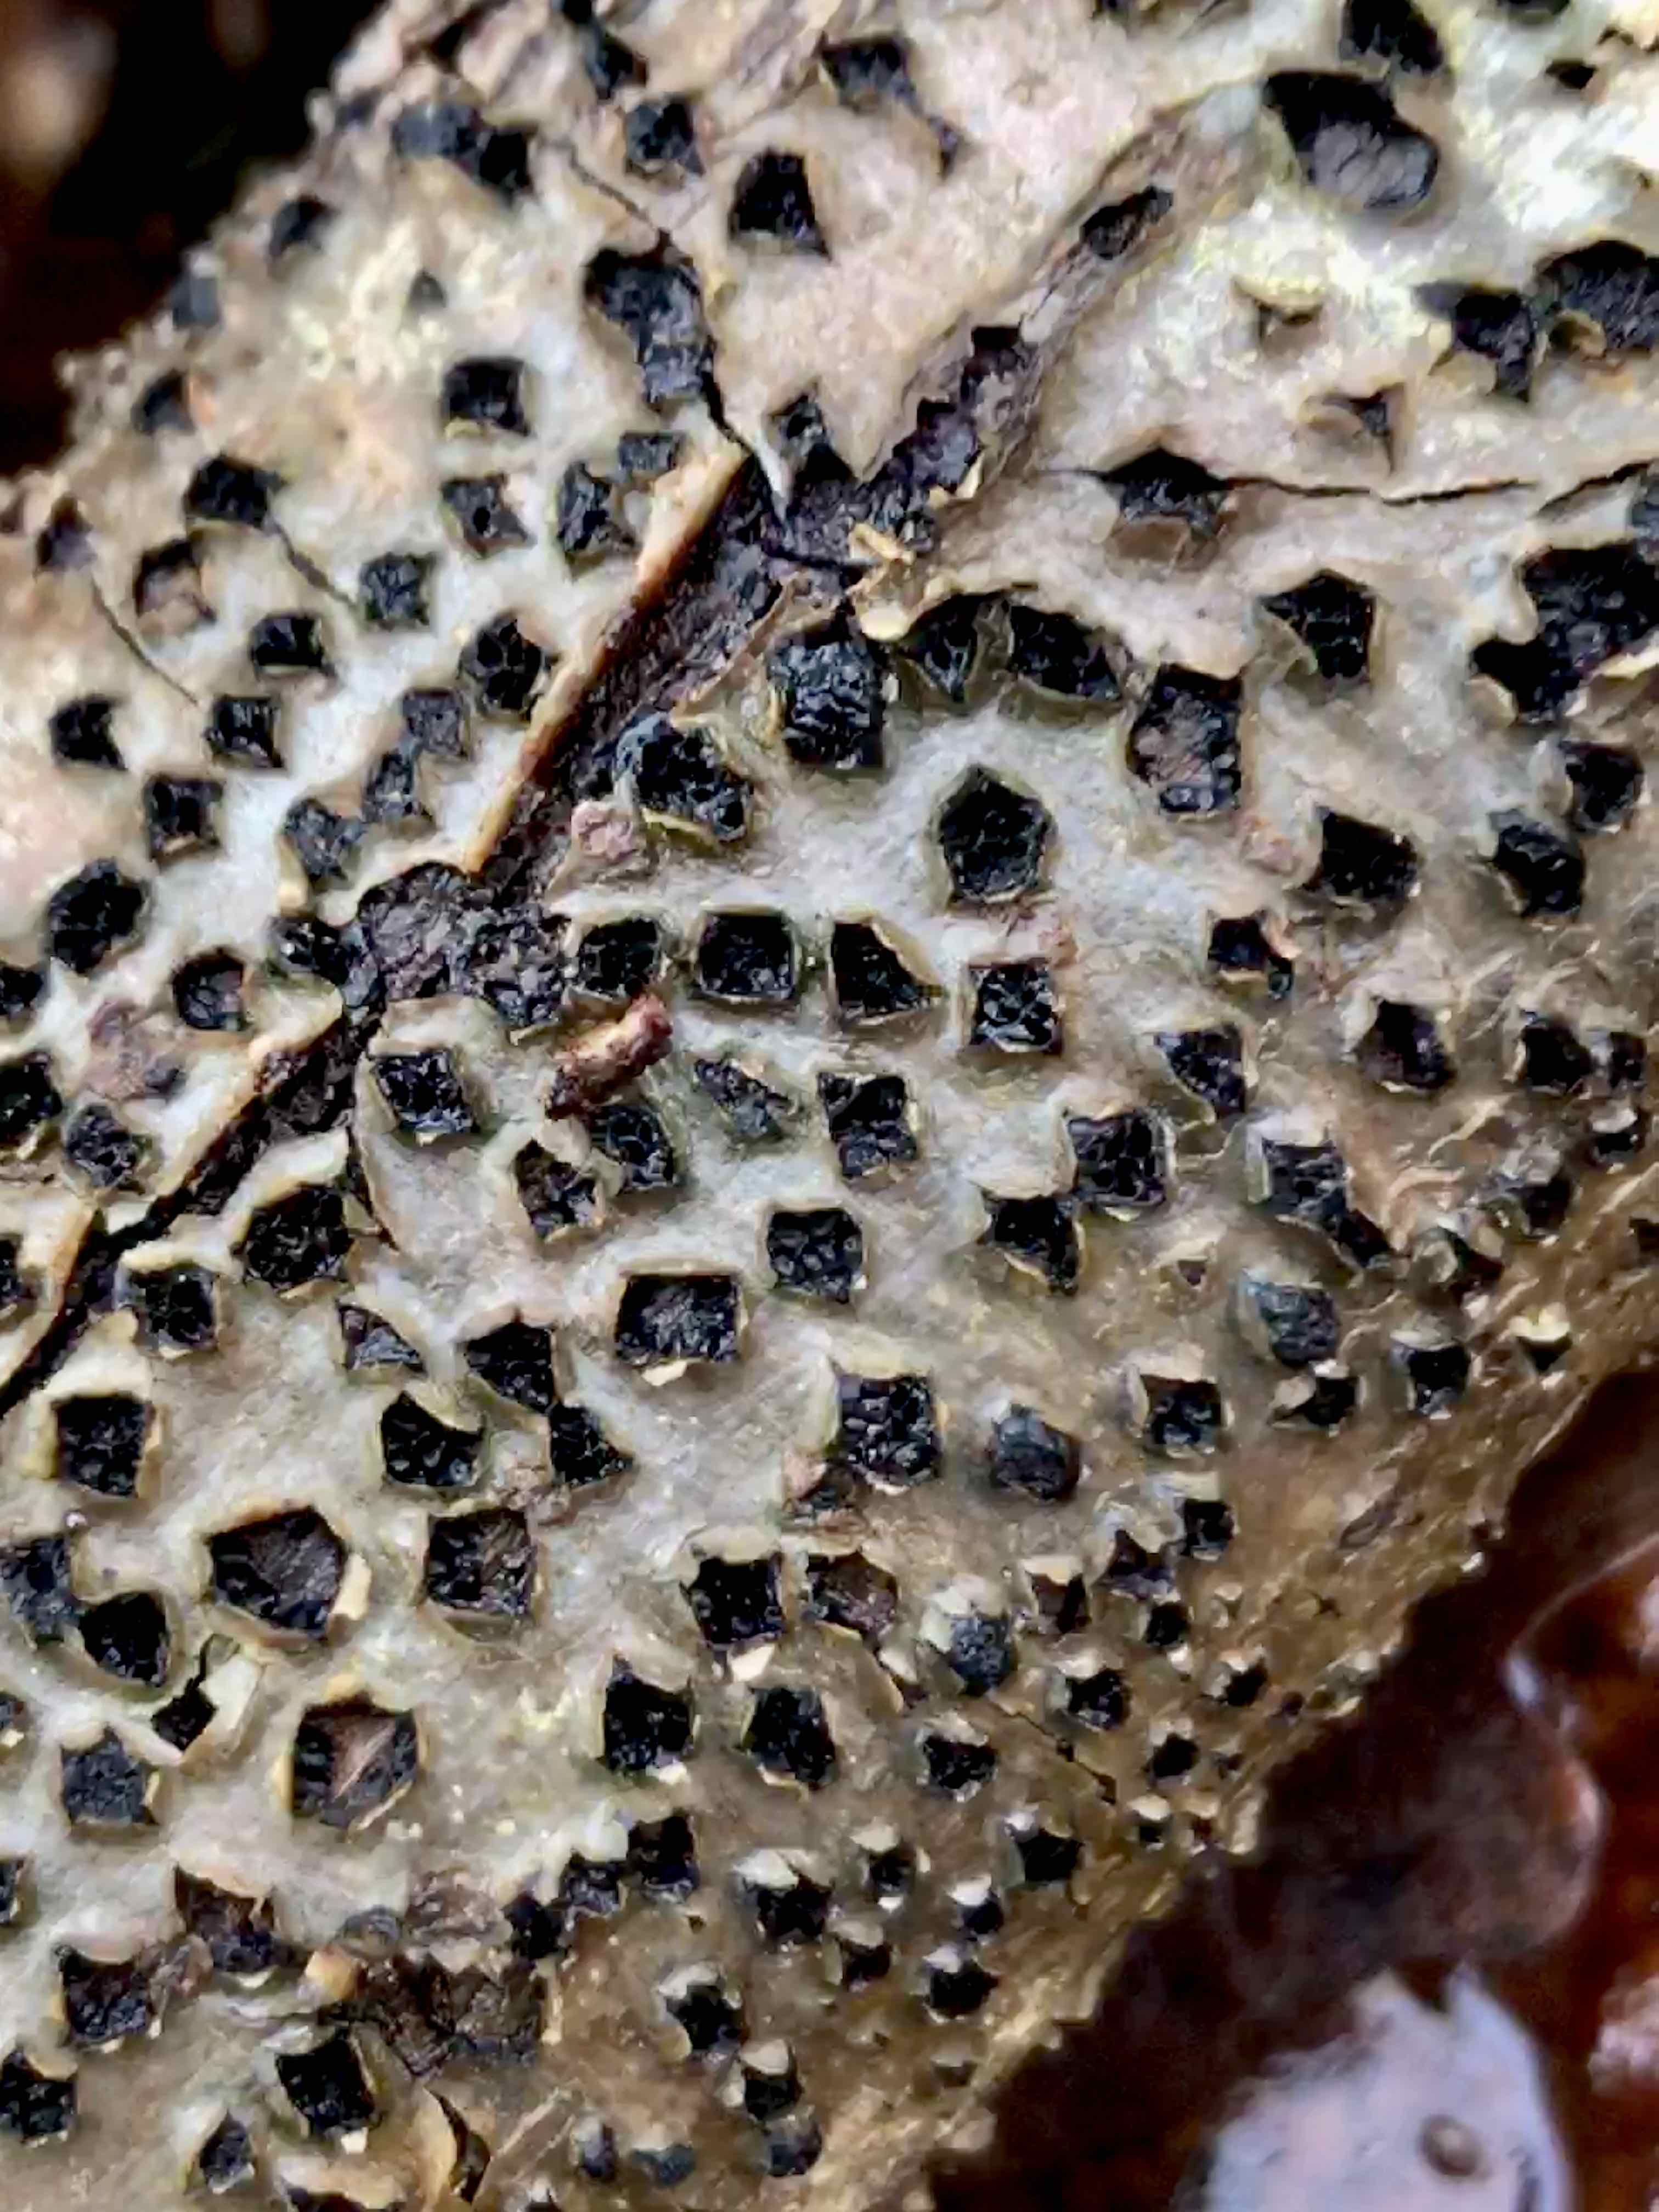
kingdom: Fungi
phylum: Ascomycota
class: Sordariomycetes
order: Xylariales
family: Diatrypaceae
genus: Diatrype
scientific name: Diatrype disciformis
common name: kant-kulskorpe
